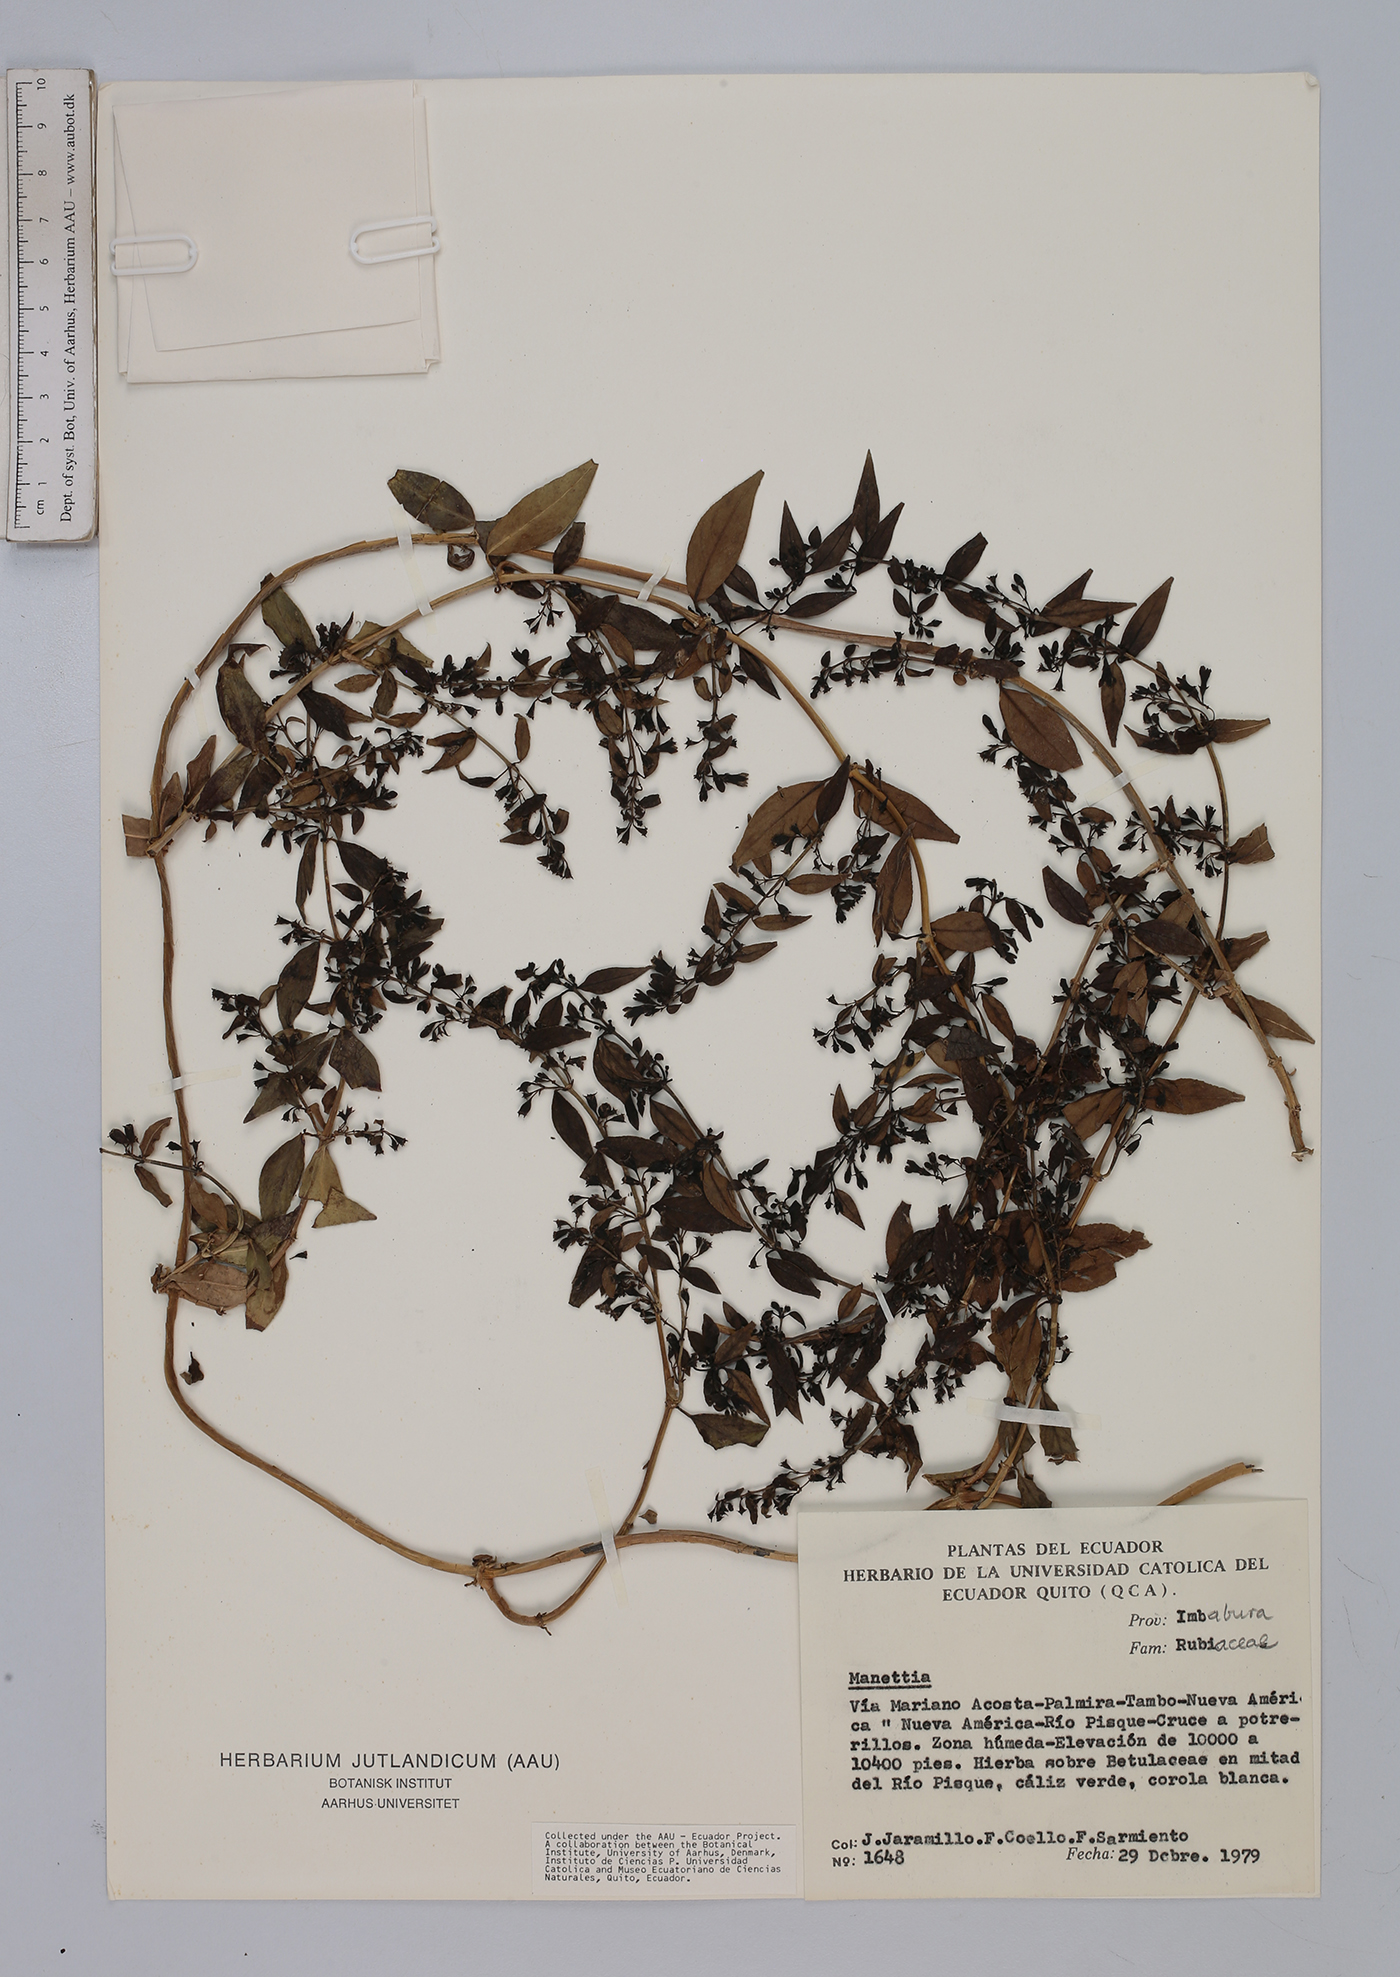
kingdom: Plantae
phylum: Tracheophyta
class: Magnoliopsida
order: Gentianales
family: Rubiaceae
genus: Manettia
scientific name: Manettia
